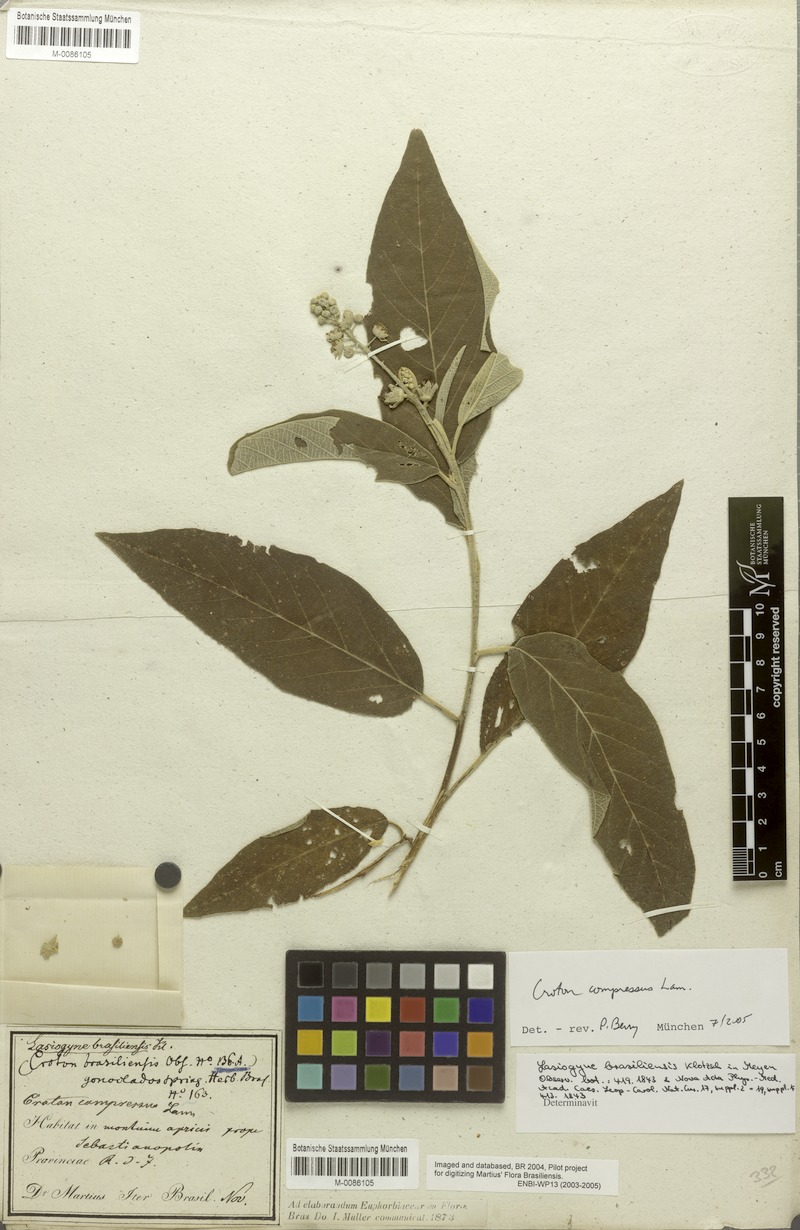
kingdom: Plantae
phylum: Tracheophyta
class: Magnoliopsida
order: Malpighiales
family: Euphorbiaceae
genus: Croton
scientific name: Croton compressus
